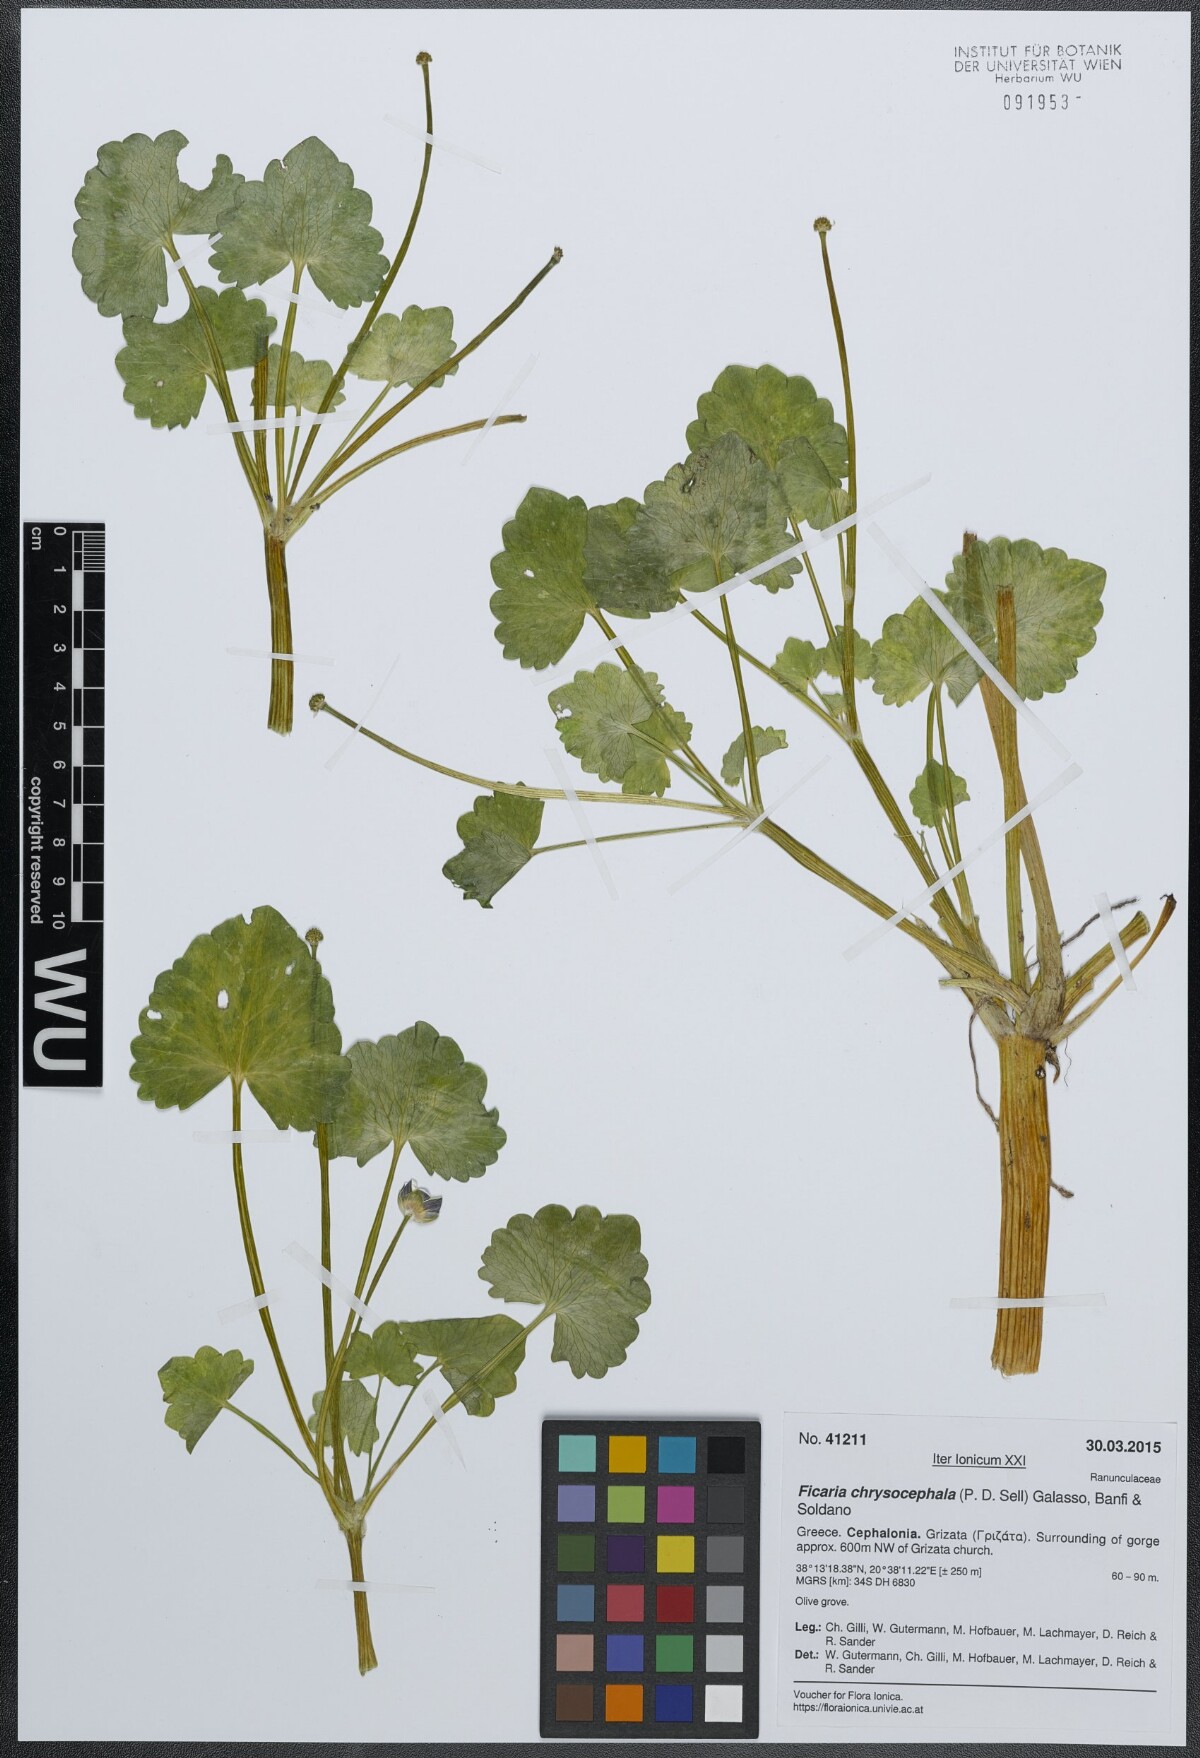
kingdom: Plantae
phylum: Tracheophyta
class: Magnoliopsida
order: Ranunculales
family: Ranunculaceae
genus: Ficaria
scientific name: Ficaria chrysocephala
